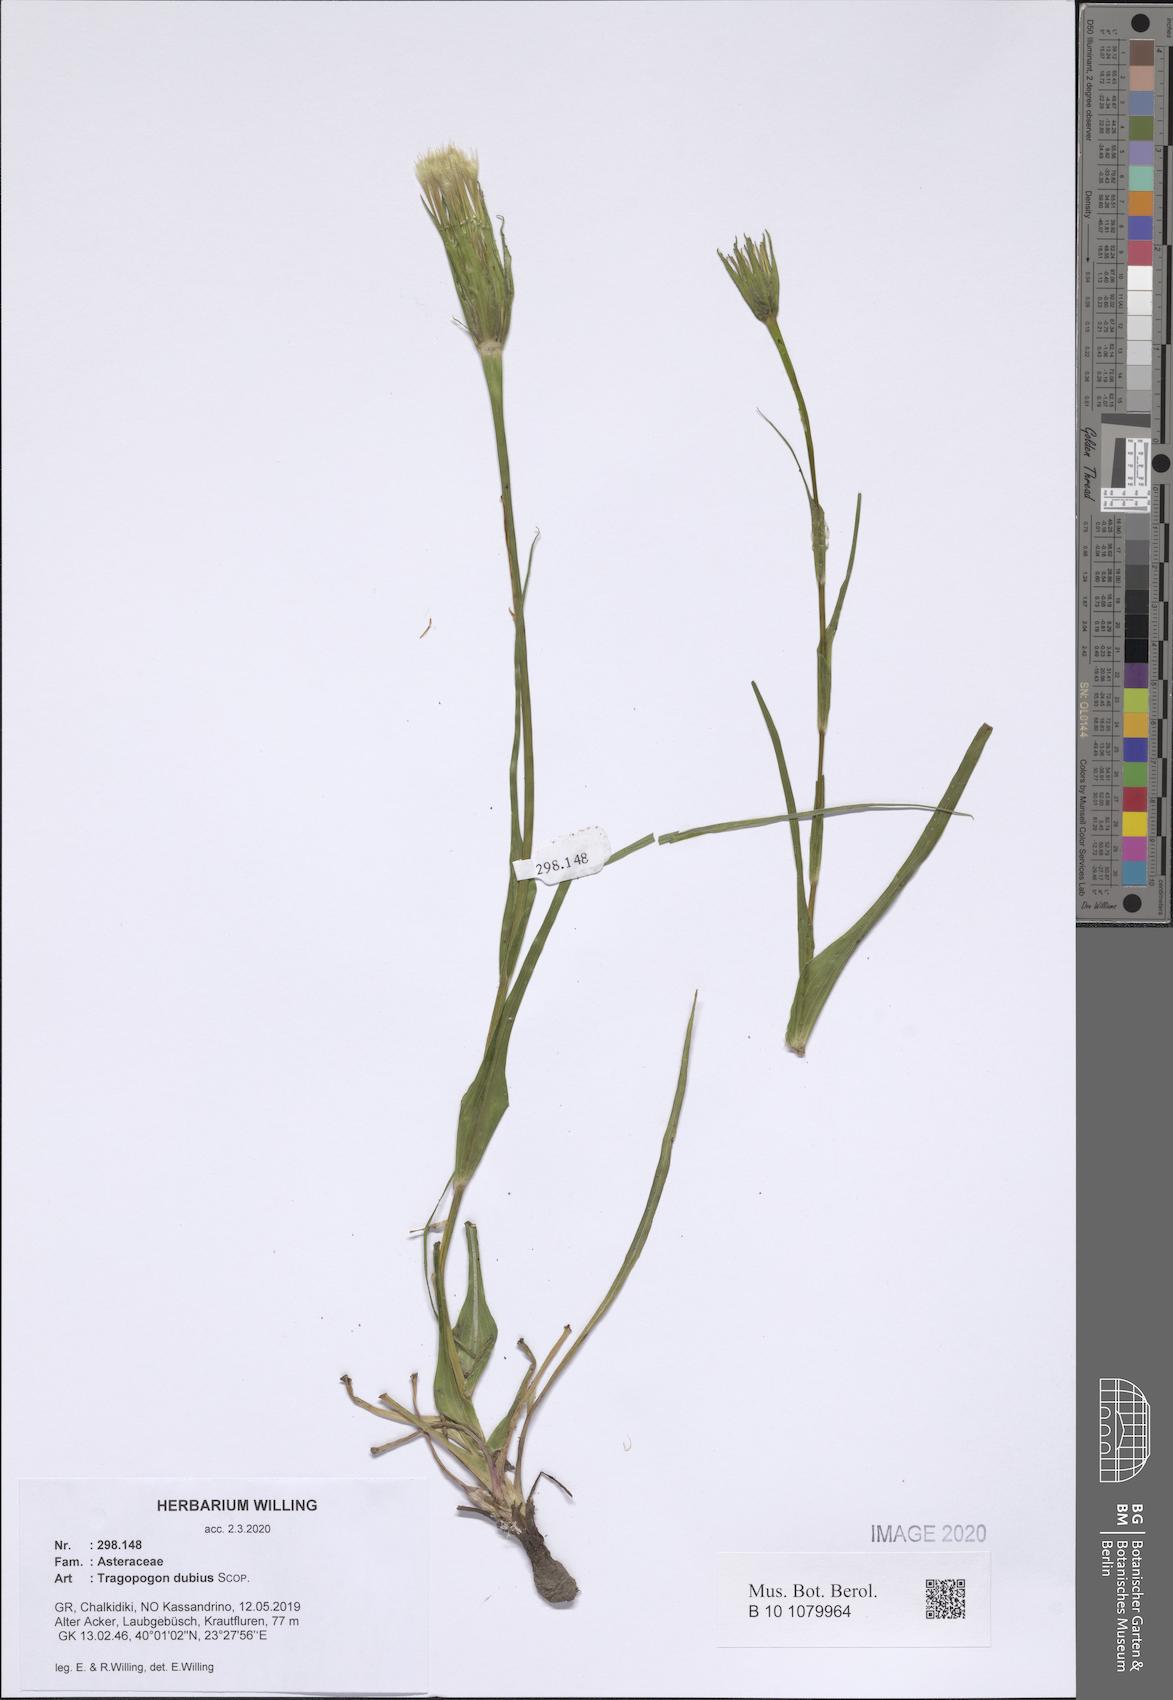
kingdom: Plantae
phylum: Tracheophyta
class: Magnoliopsida
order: Asterales
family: Asteraceae
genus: Tragopogon
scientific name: Tragopogon dubius
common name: Yellow salsify
